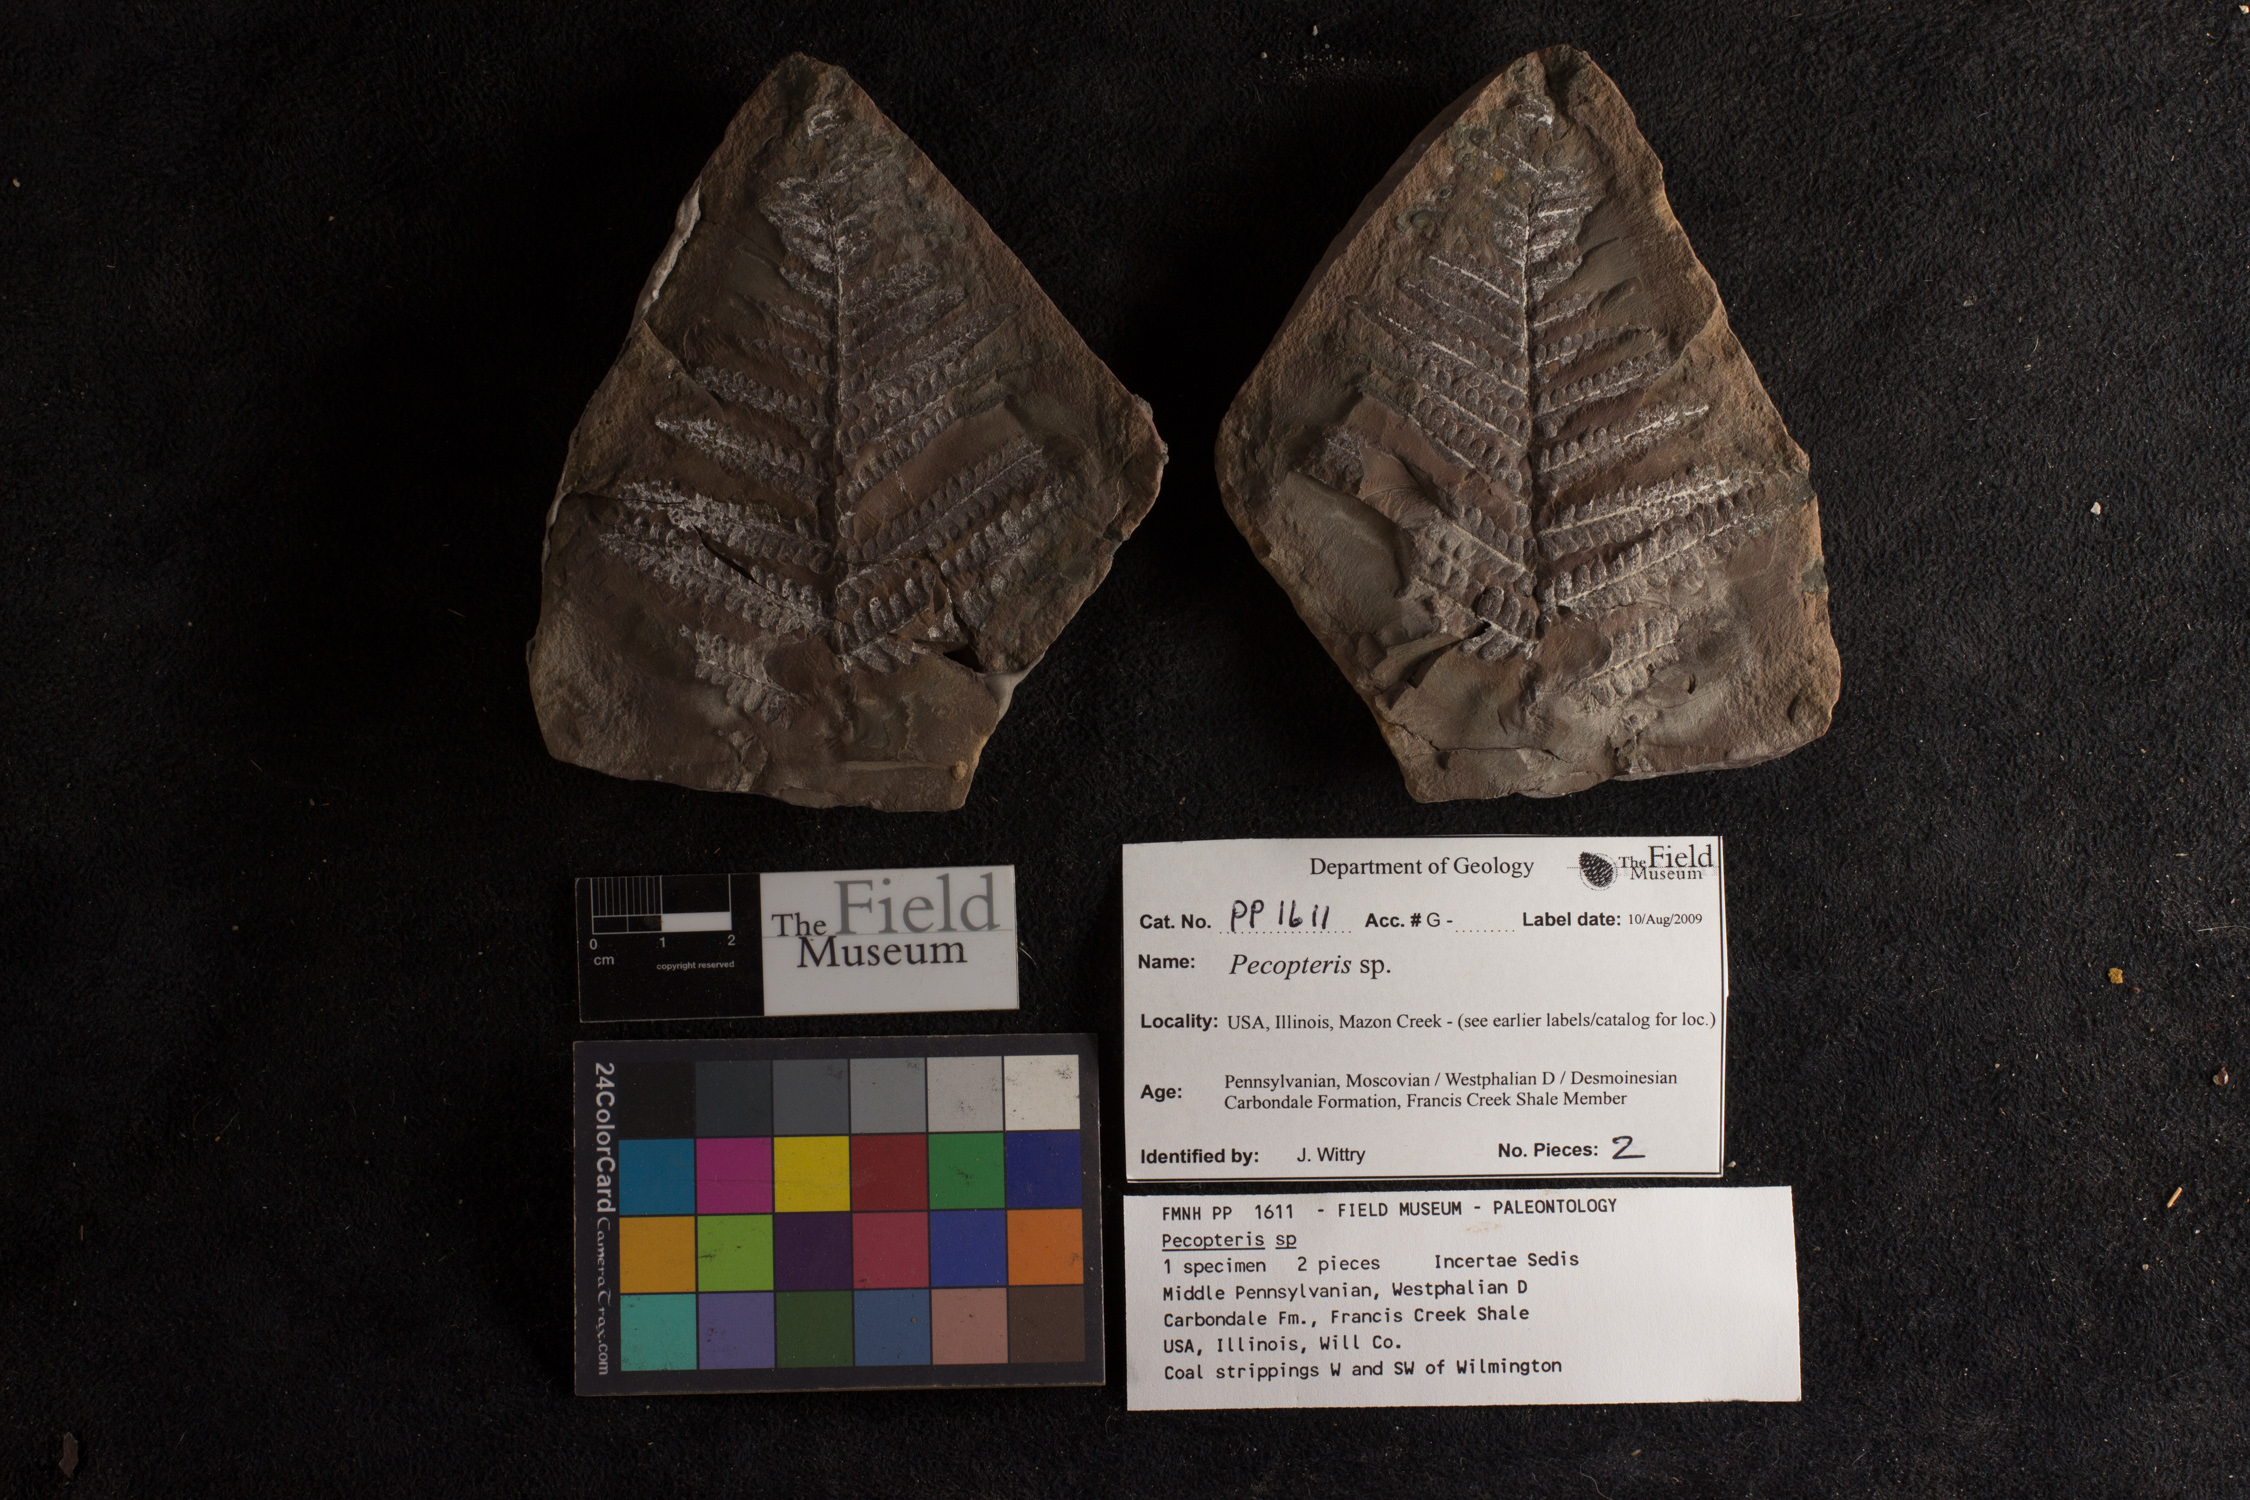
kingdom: Plantae
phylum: Tracheophyta
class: Polypodiopsida
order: Marattiales
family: Asterothecaceae
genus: Pecopteris
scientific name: Pecopteris
